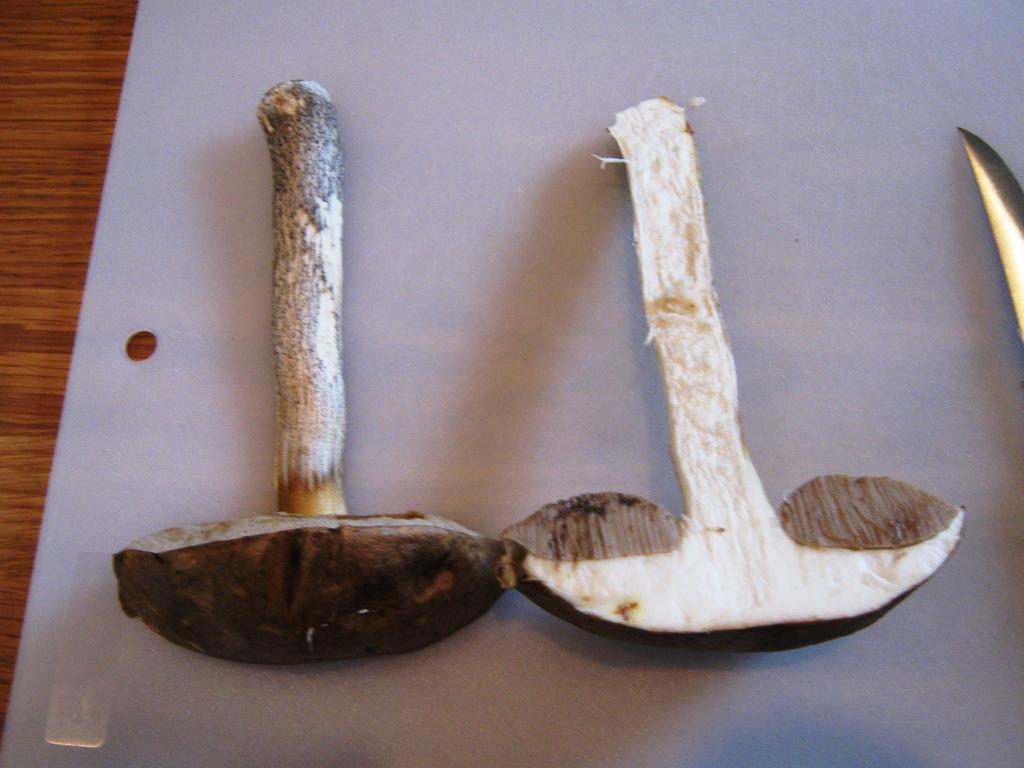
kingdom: Fungi
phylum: Basidiomycota
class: Agaricomycetes
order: Boletales
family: Boletaceae
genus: Leccinum
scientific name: Leccinum scabrum
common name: brun skælrørhat
